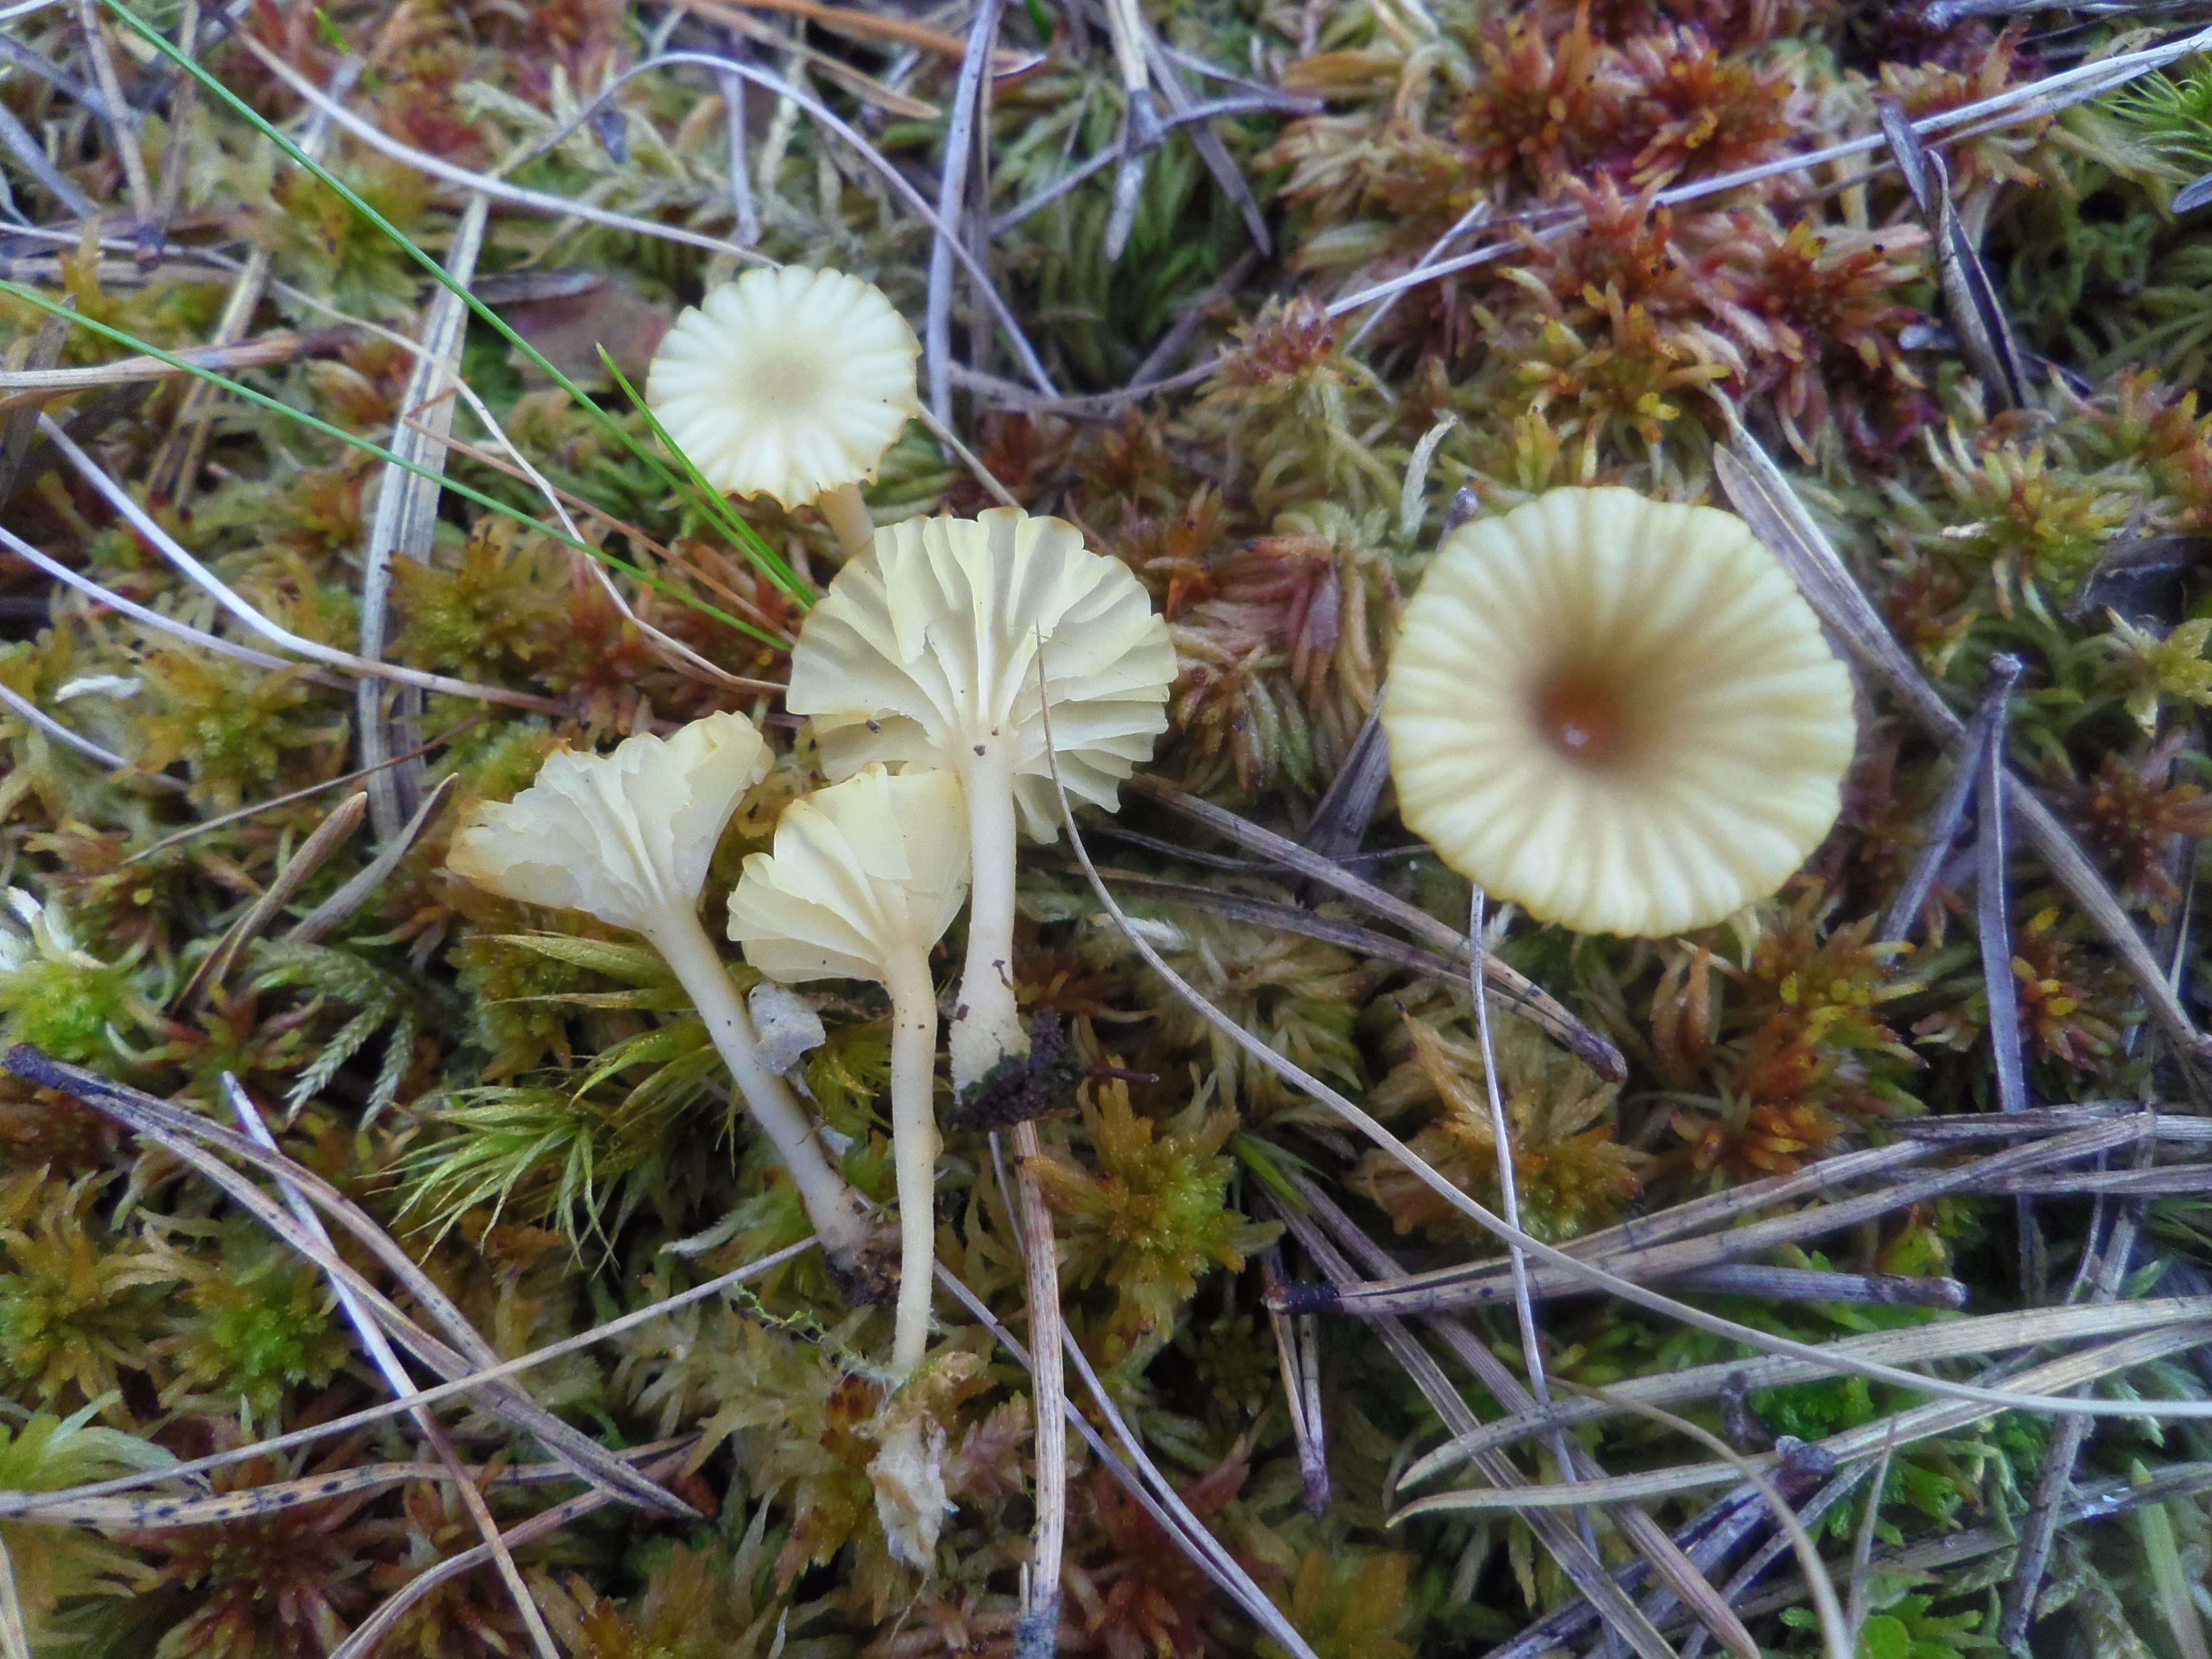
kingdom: Fungi
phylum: Basidiomycota
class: Agaricomycetes
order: Agaricales
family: Hygrophoraceae
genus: Lichenomphalia
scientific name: Lichenomphalia umbellifera
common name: Heath navel
